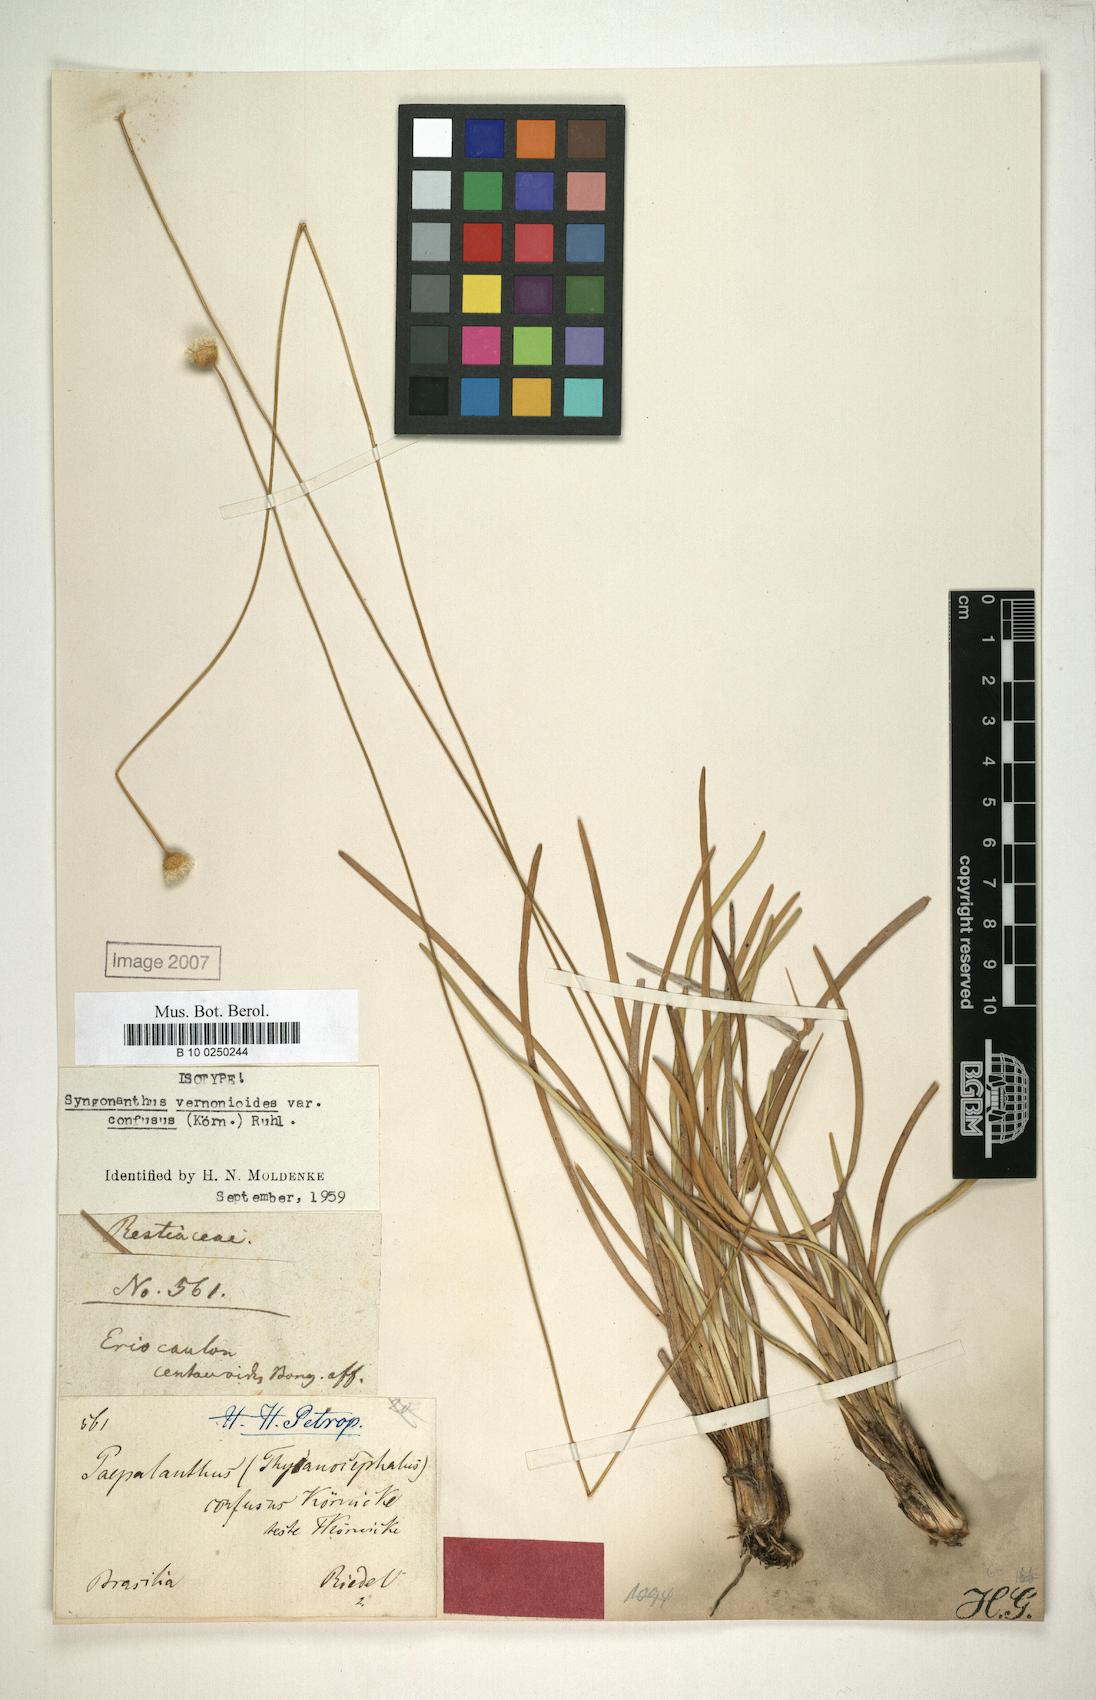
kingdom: Plantae
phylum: Tracheophyta
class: Liliopsida
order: Poales
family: Eriocaulaceae
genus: Comanthera
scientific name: Comanthera centauroides
